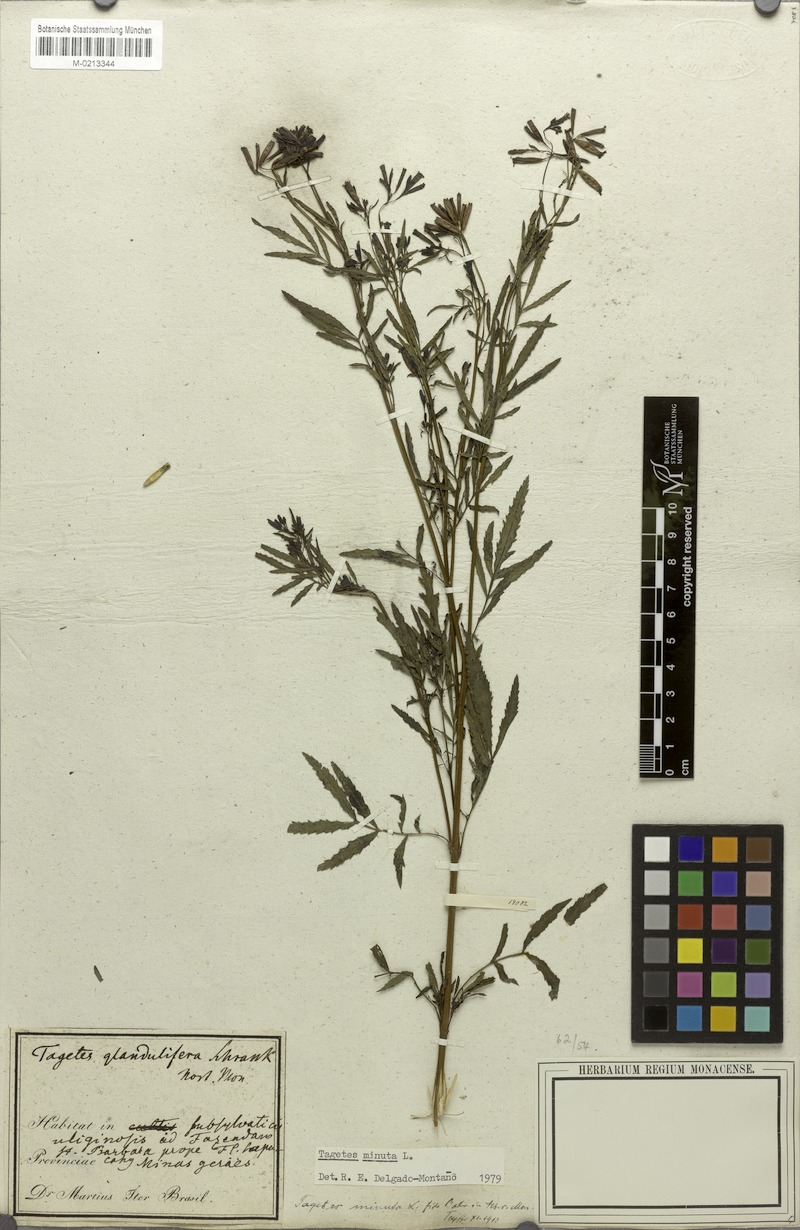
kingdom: Plantae
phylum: Tracheophyta
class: Magnoliopsida
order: Asterales
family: Asteraceae
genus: Tagetes
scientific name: Tagetes minuta
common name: Muster john henry
